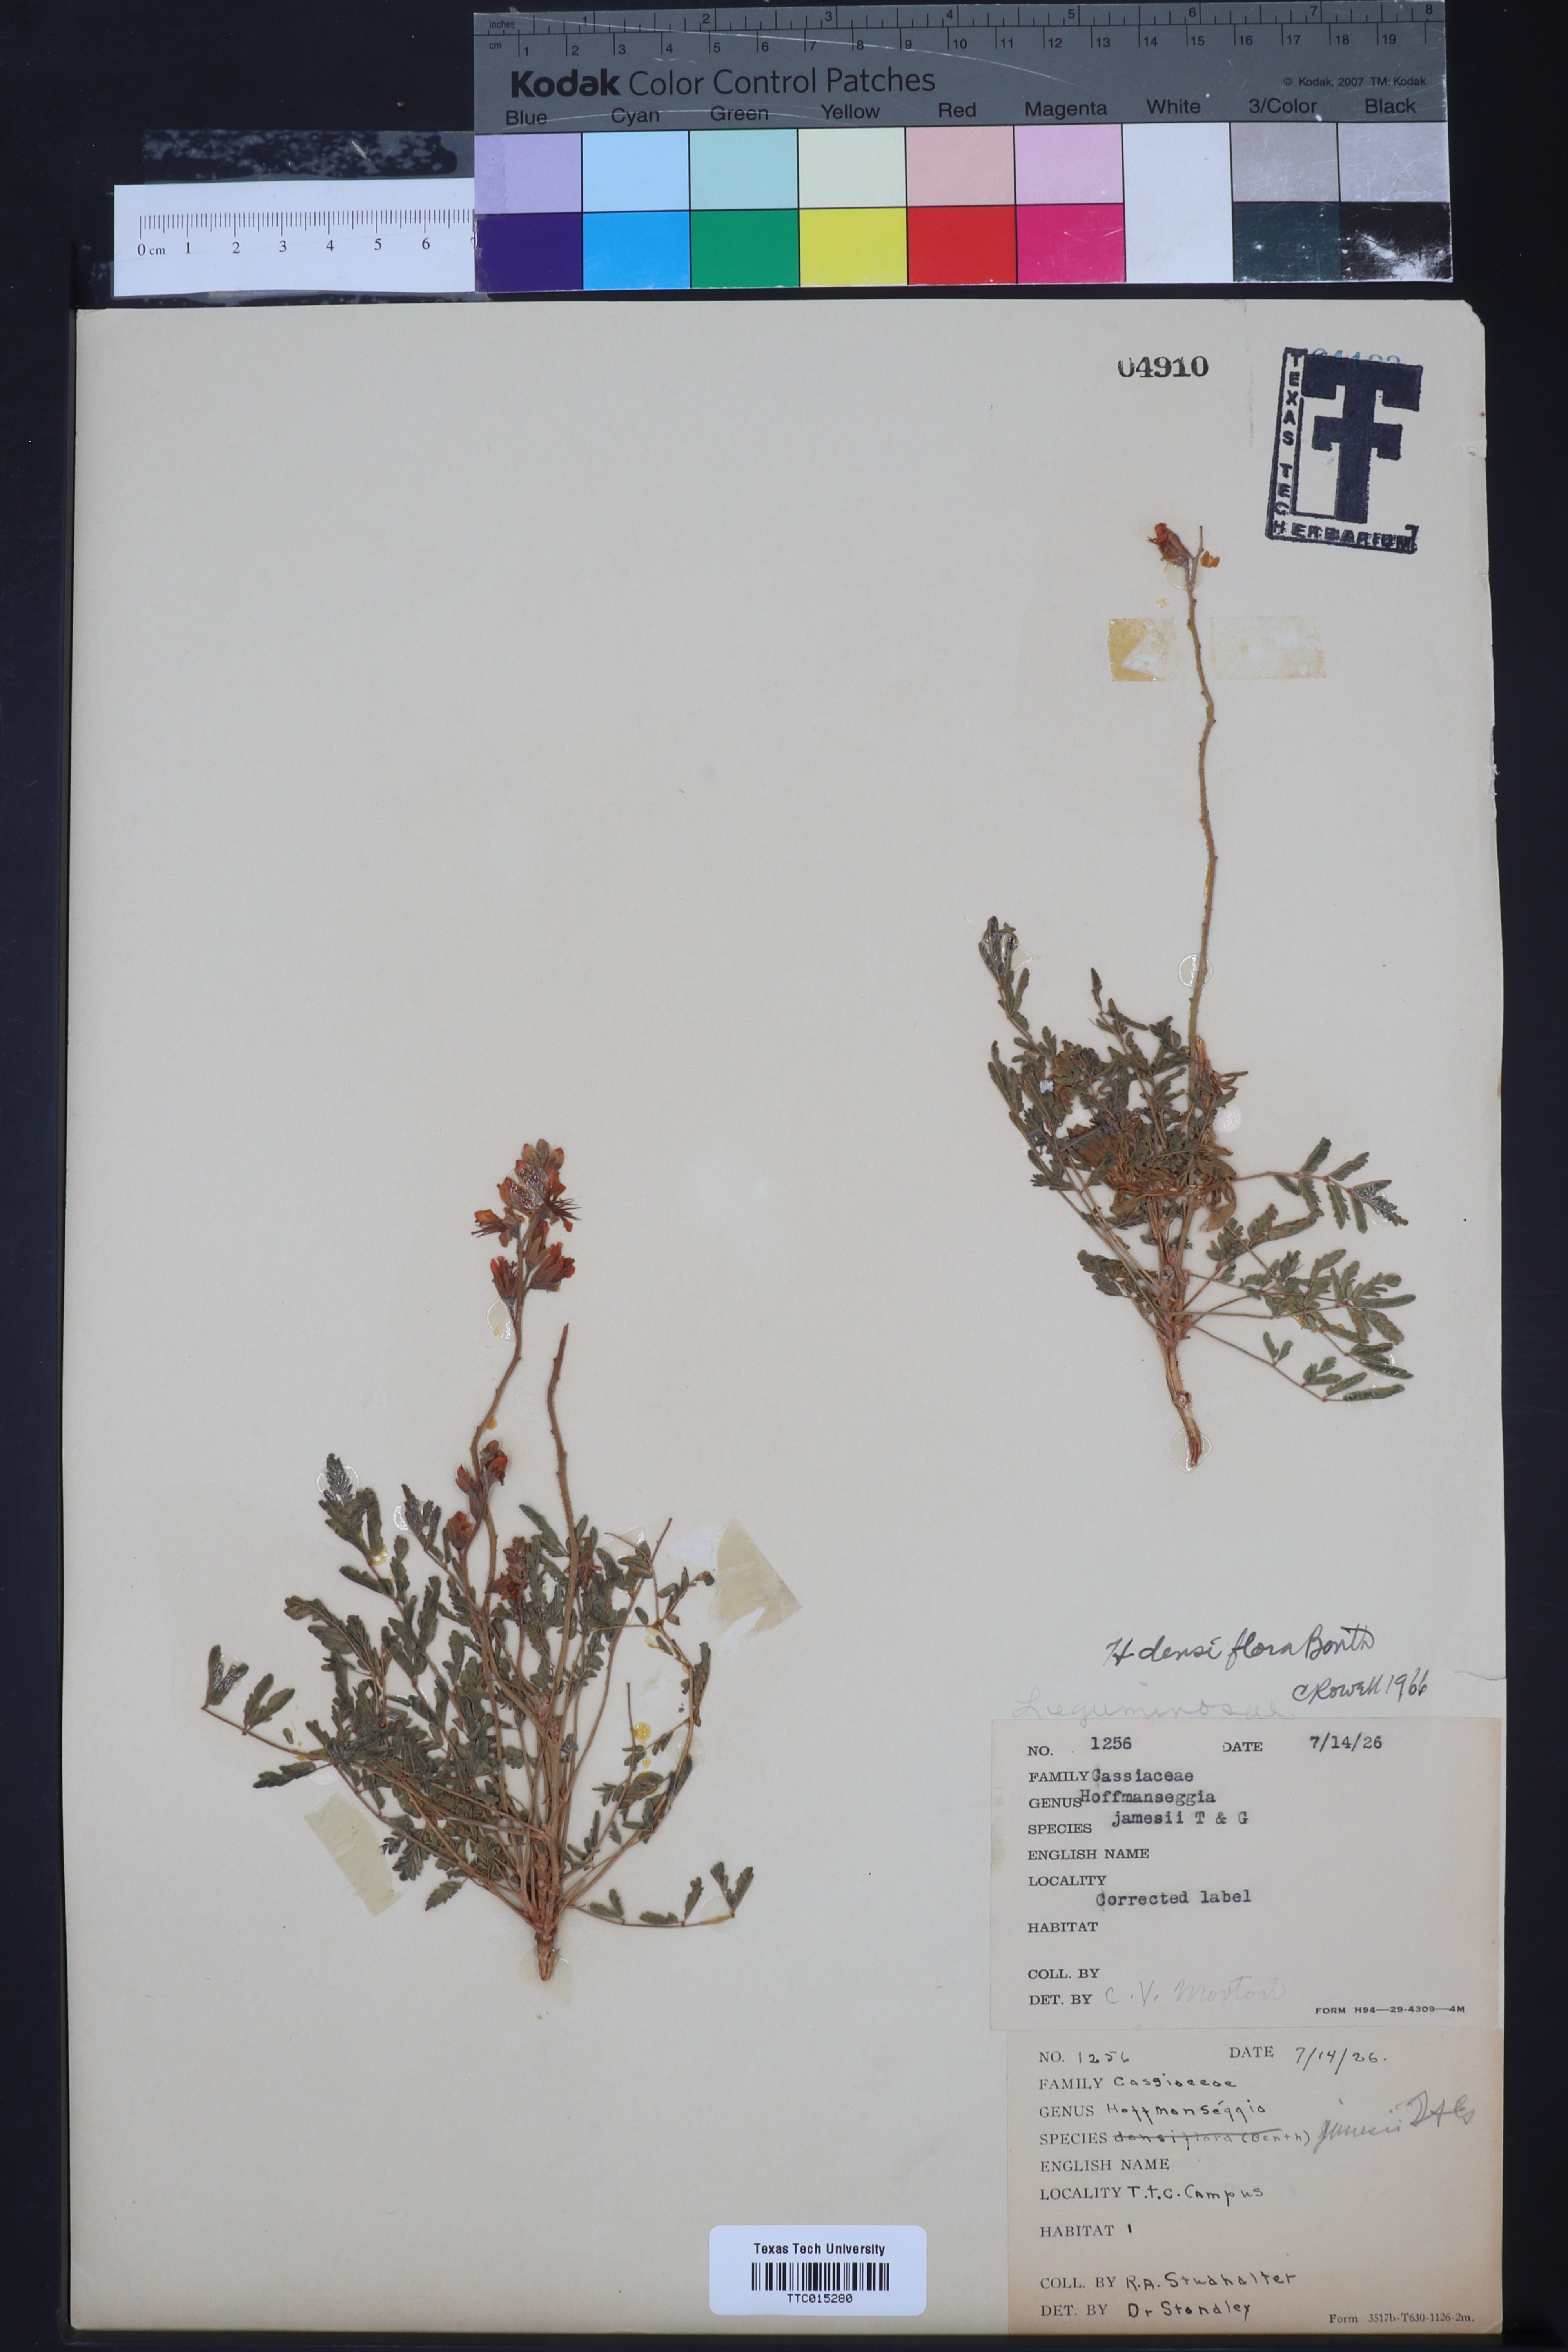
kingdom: Plantae
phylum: Tracheophyta
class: Magnoliopsida
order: Fabales
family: Fabaceae
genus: Hoffmannseggia
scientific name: Hoffmannseggia glauca
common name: Pignut
